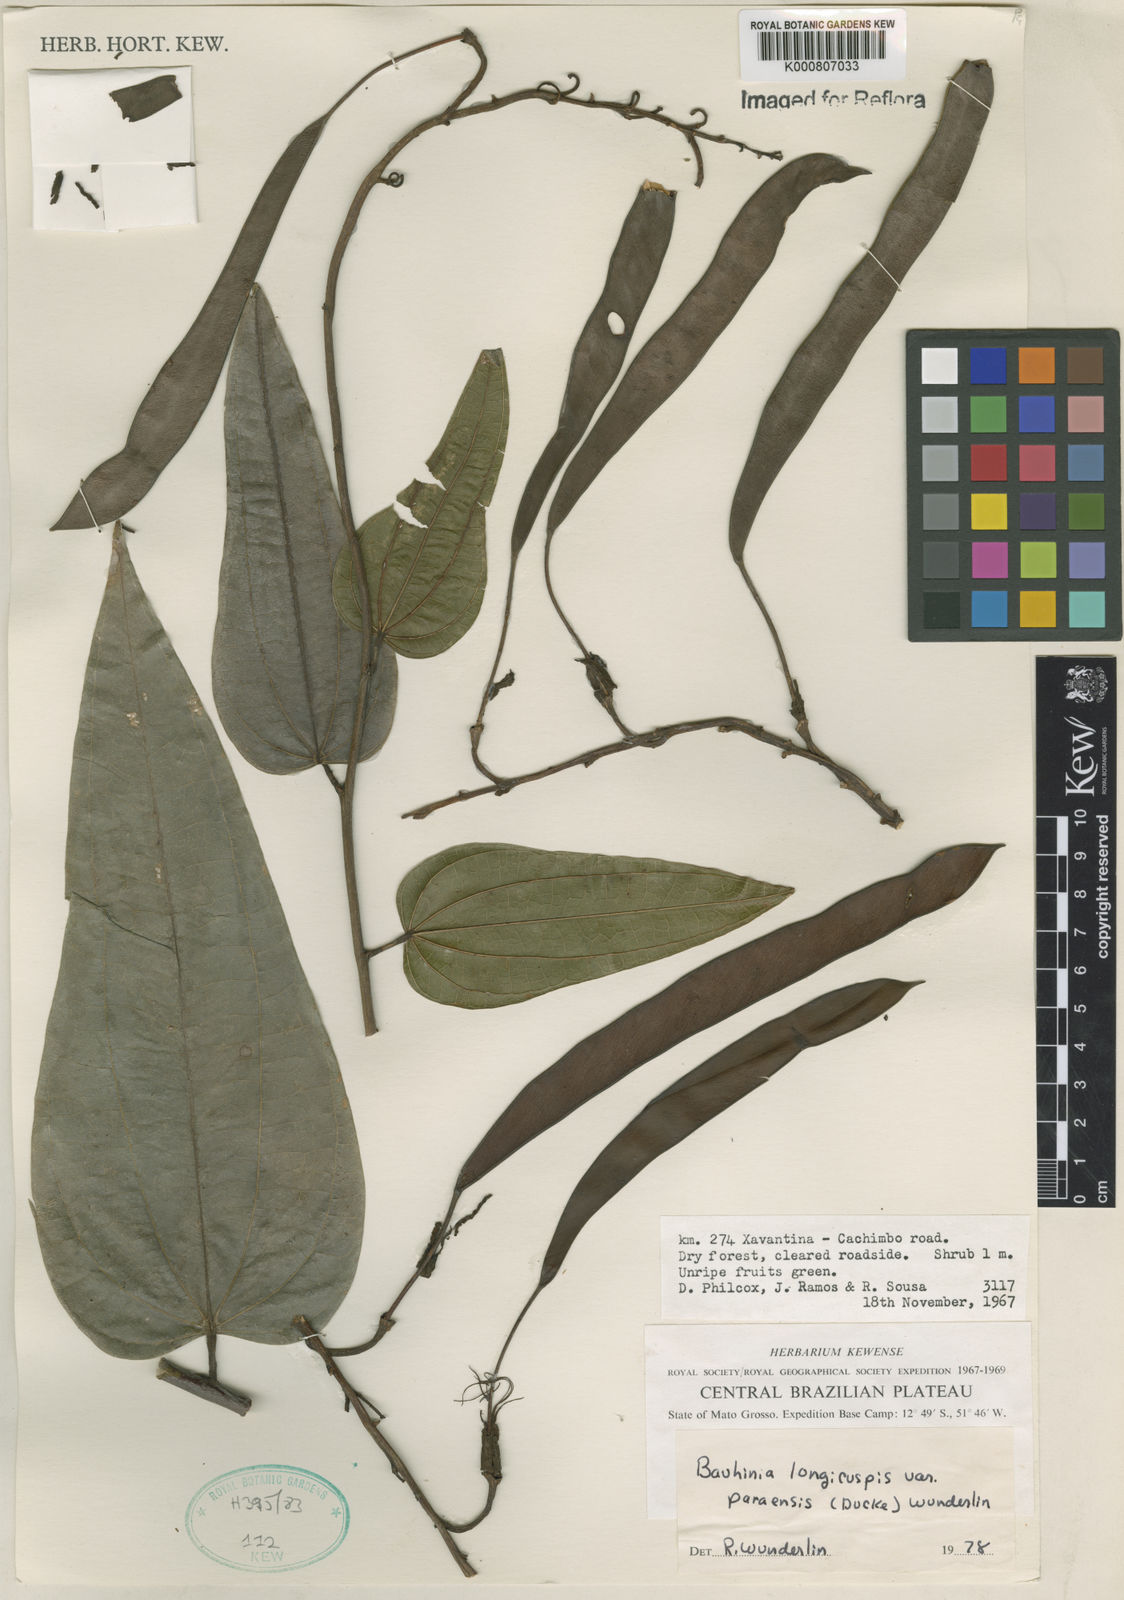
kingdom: Plantae
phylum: Tracheophyta
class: Magnoliopsida
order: Fabales
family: Fabaceae
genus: Bauhinia
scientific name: Bauhinia longicuspis
